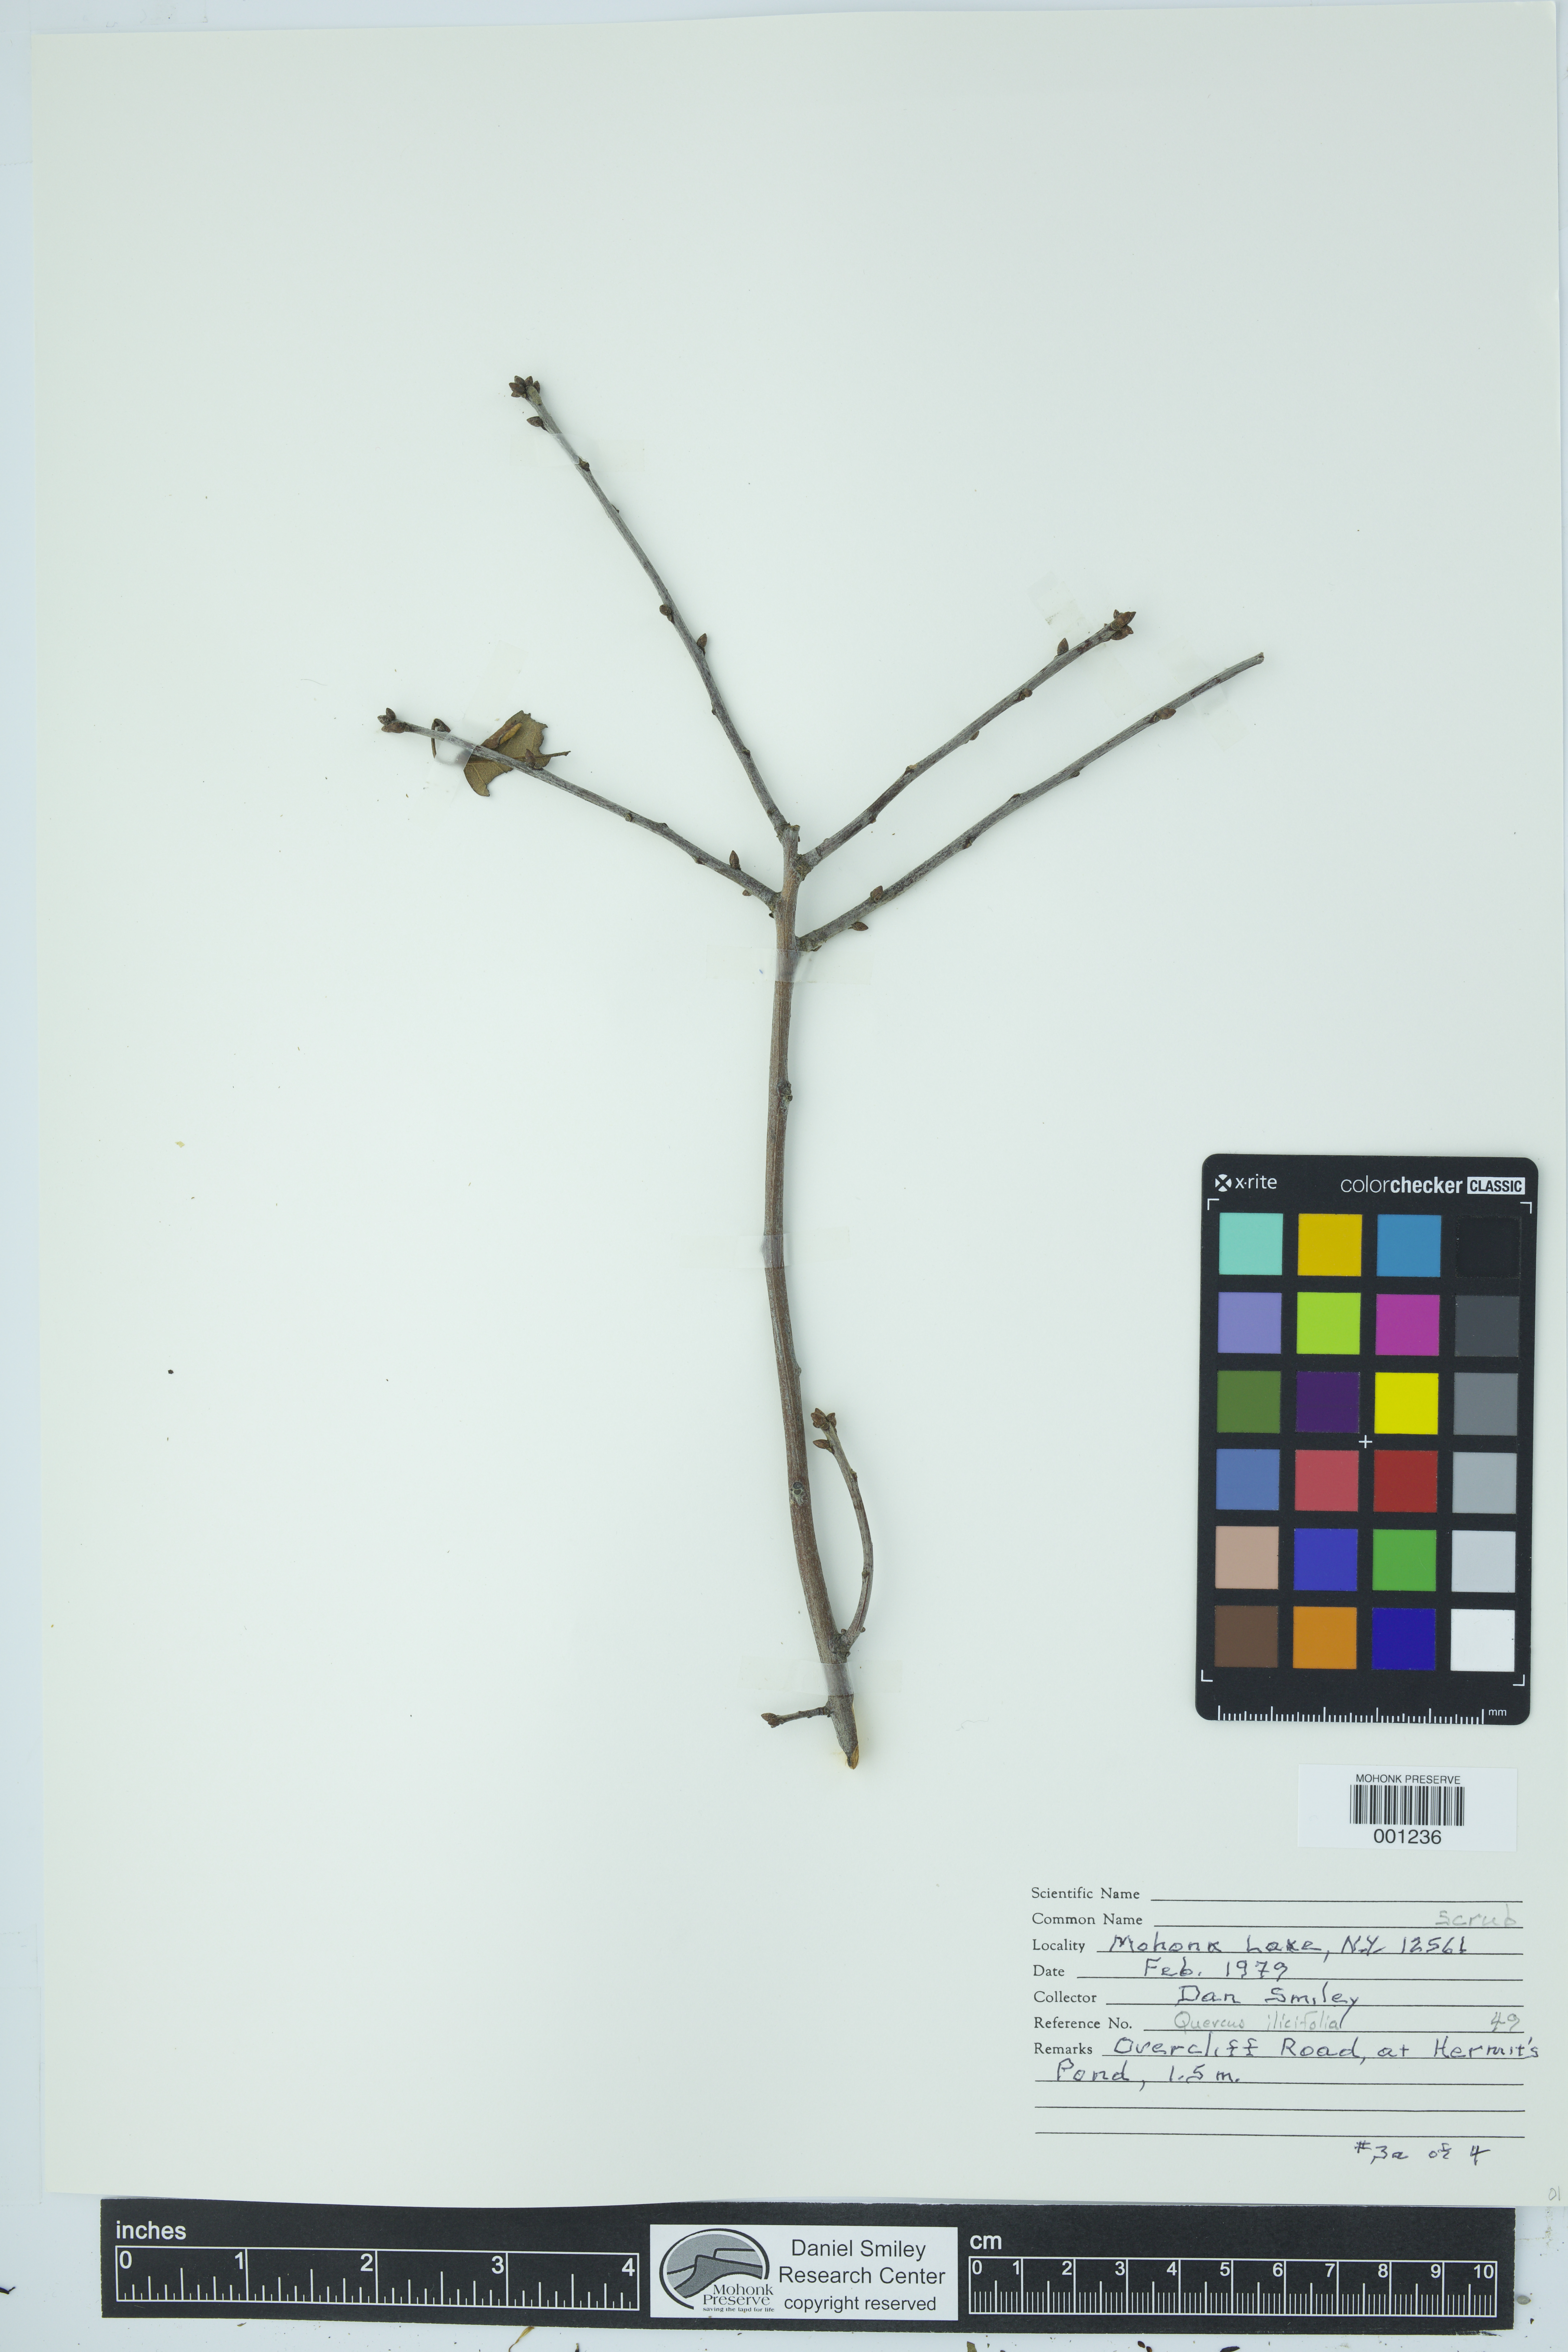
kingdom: Plantae
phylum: Tracheophyta
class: Magnoliopsida
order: Fagales
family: Fagaceae
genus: Quercus
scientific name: Quercus ilicifolia
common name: Bear oak
